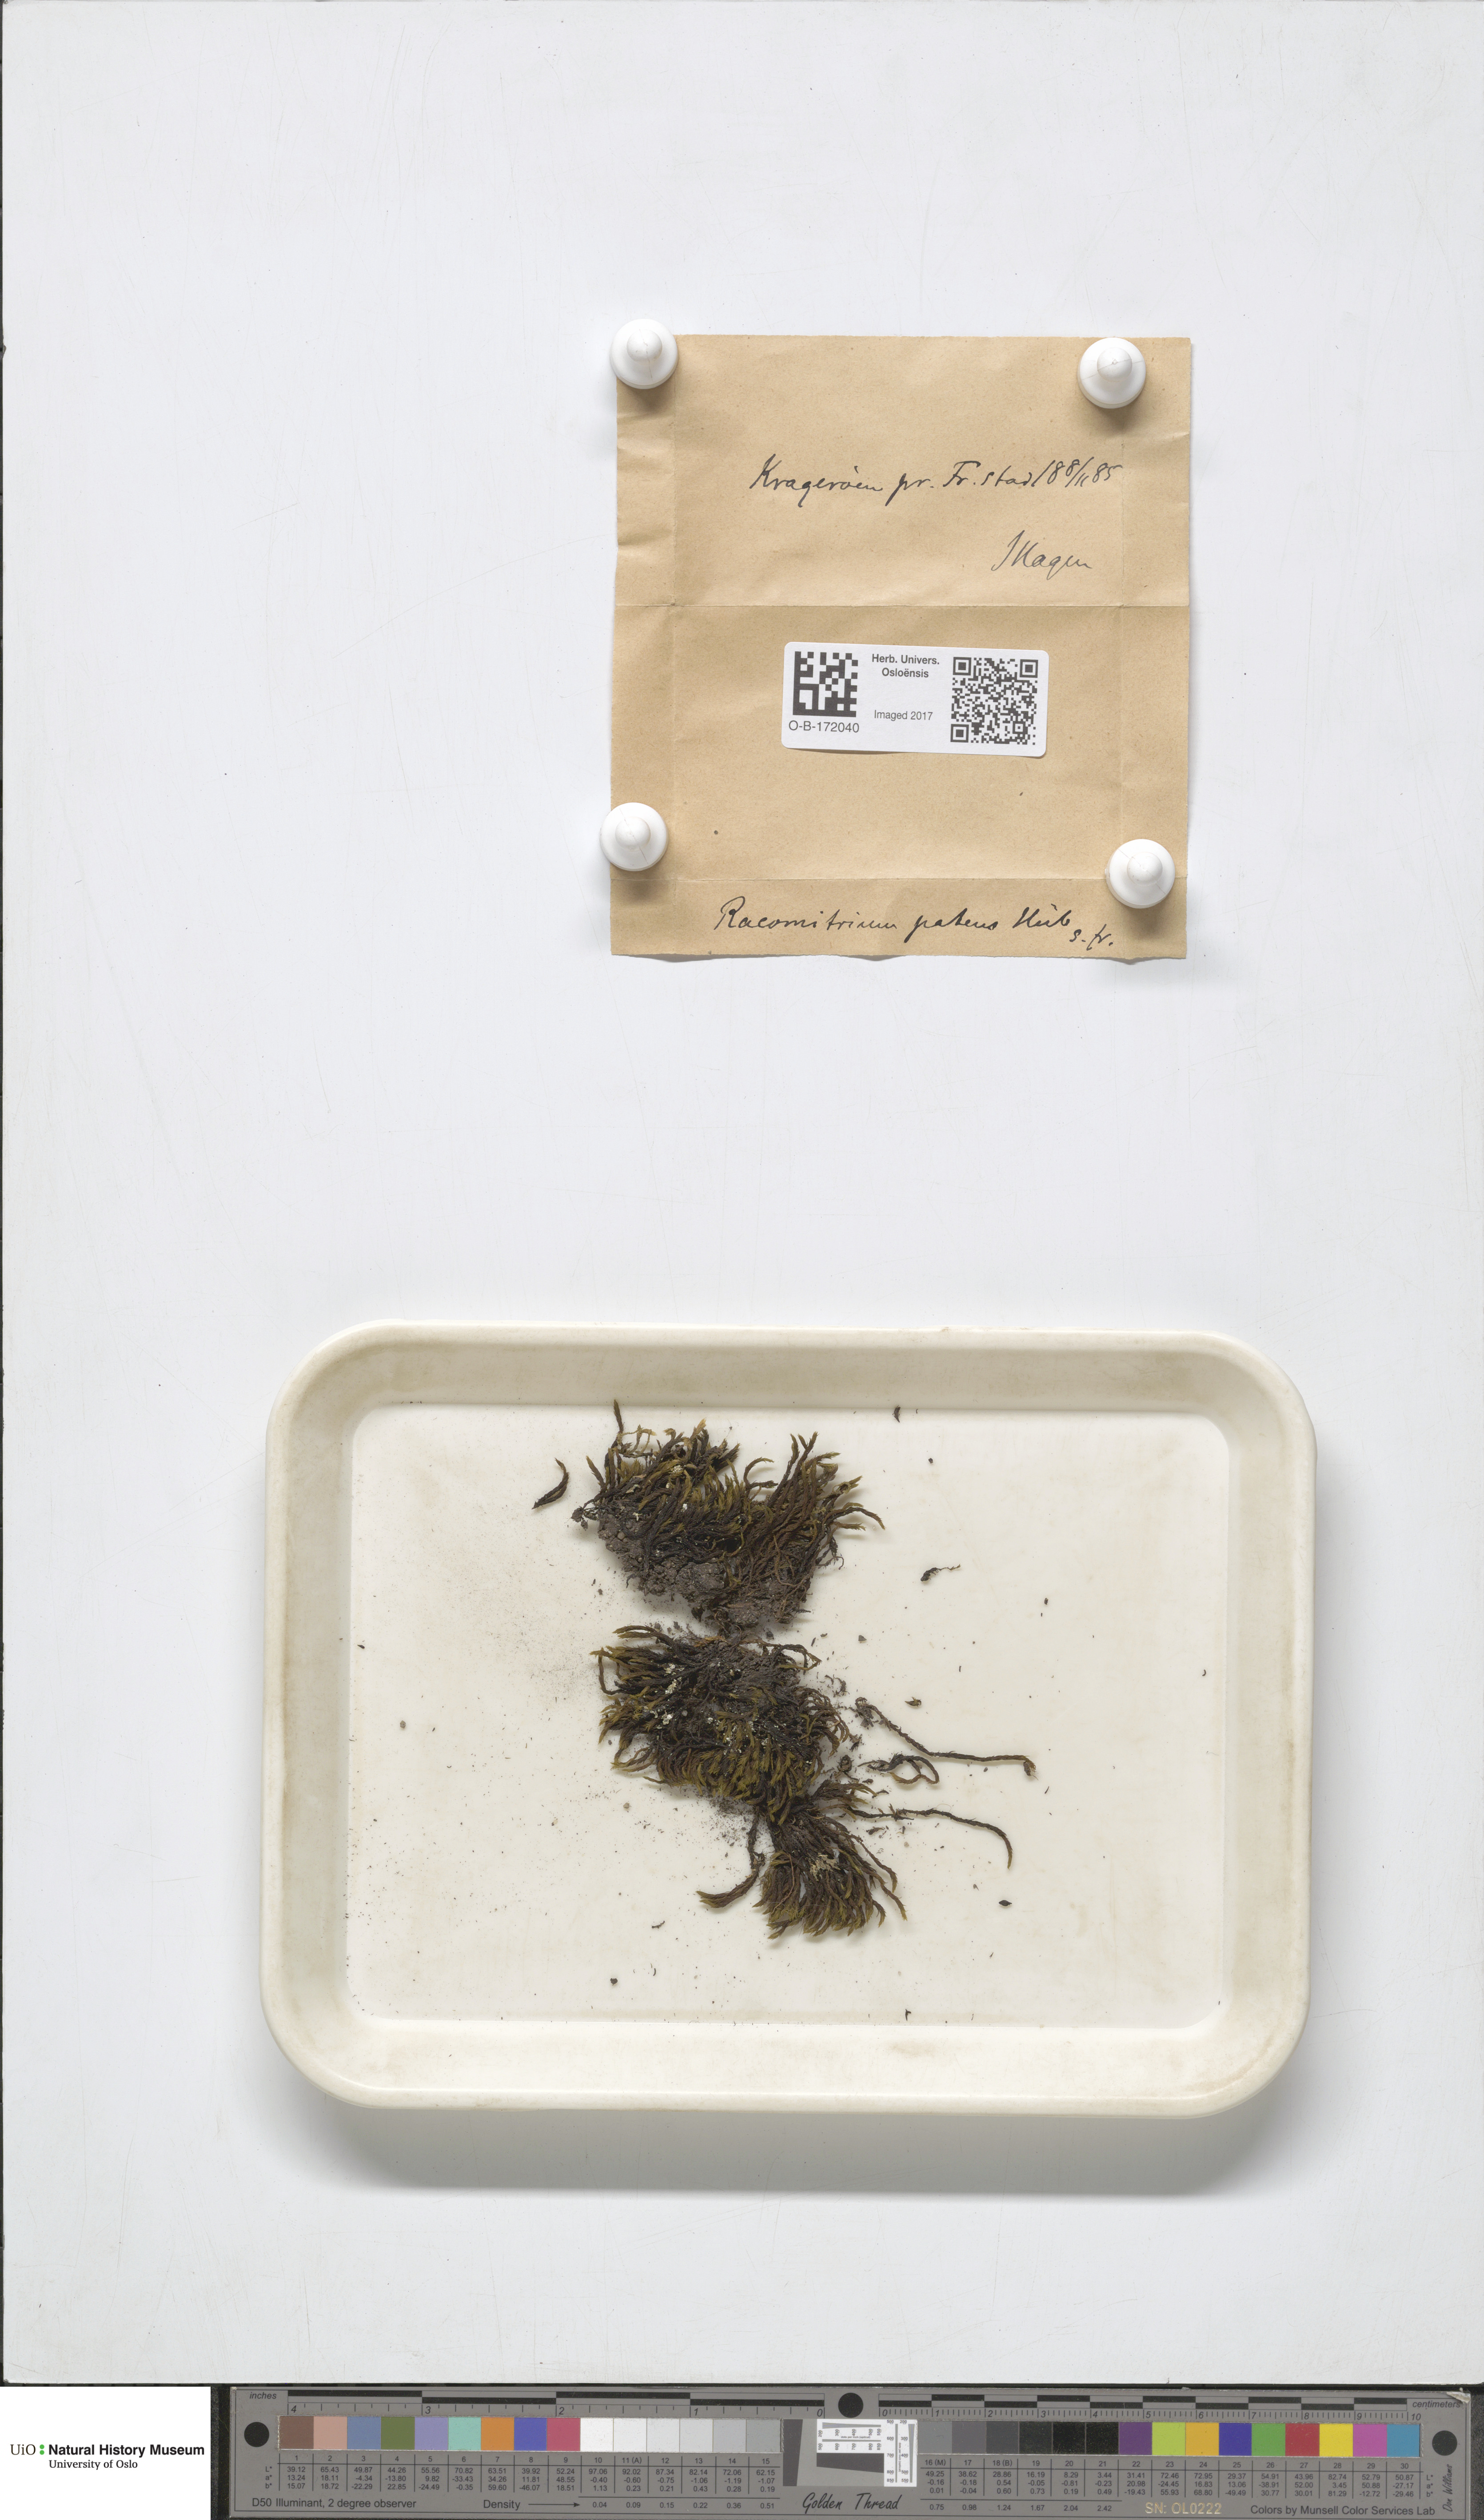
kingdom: Plantae
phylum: Bryophyta
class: Bryopsida
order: Grimmiales
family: Grimmiaceae
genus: Grimmia
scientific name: Grimmia ramondii
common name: Spreading-leaved grimmia
